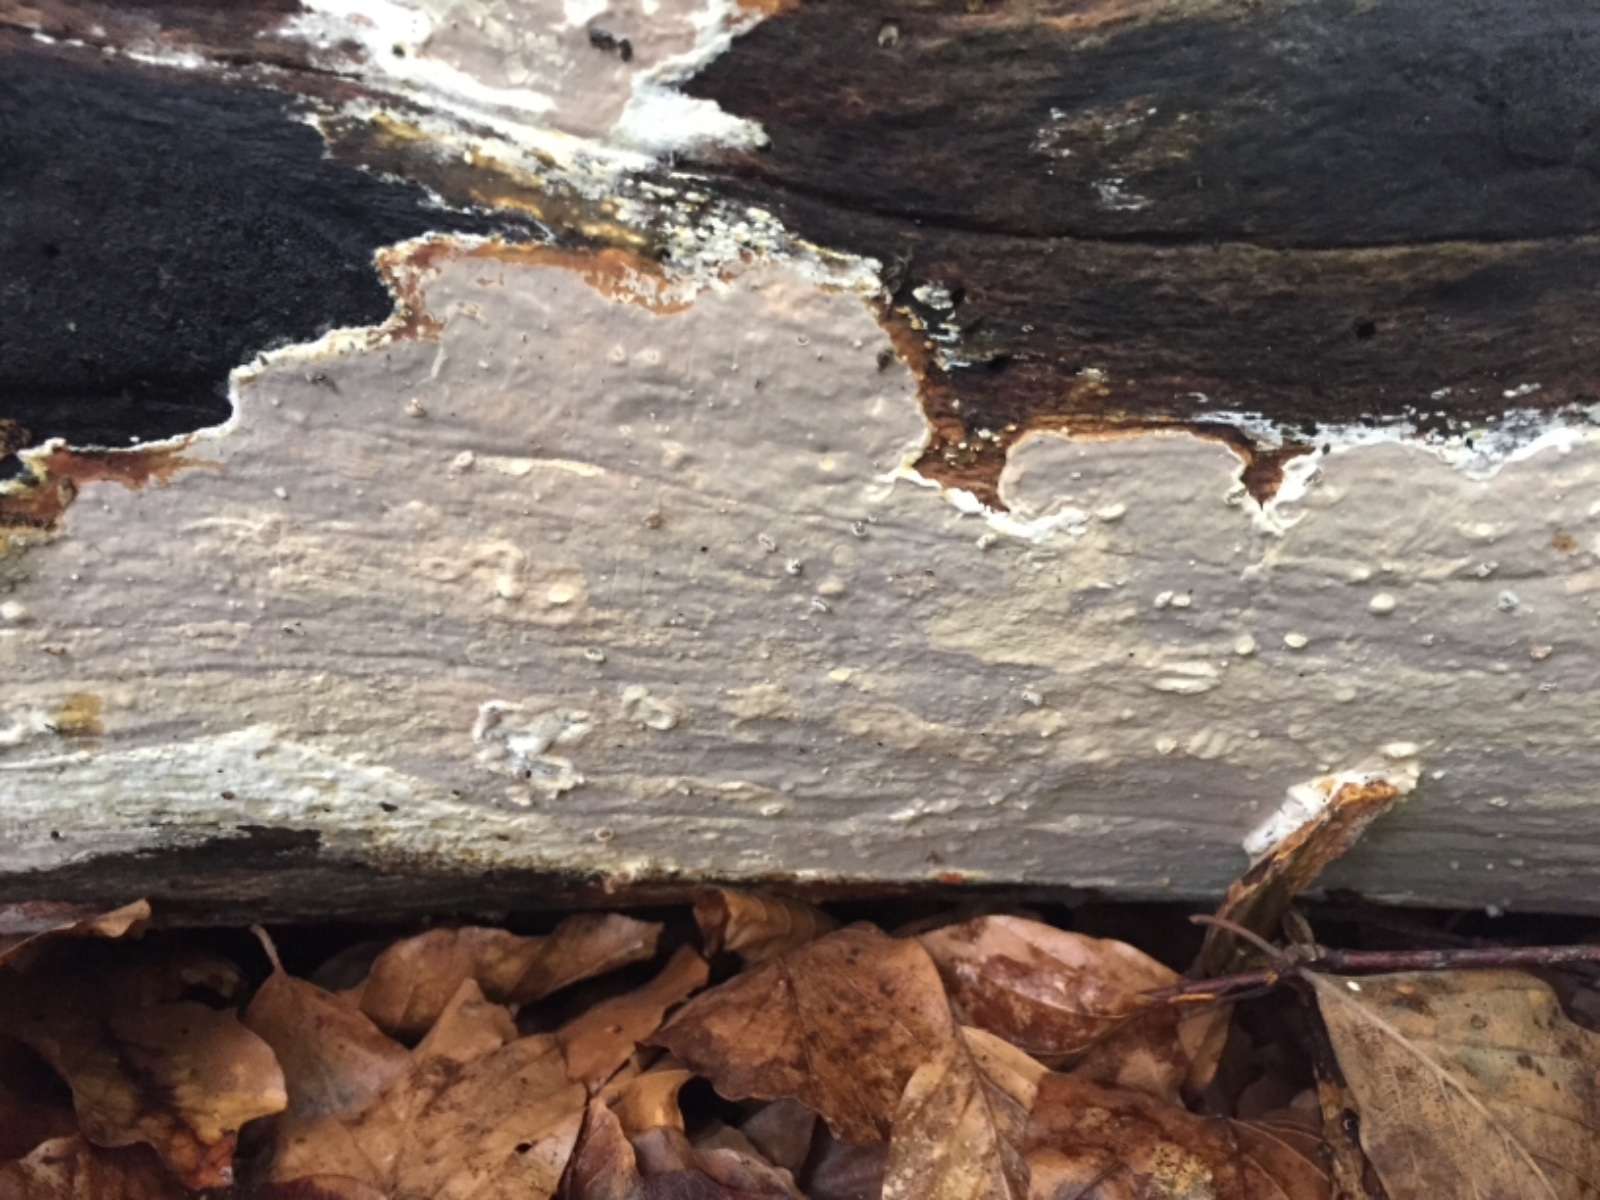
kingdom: Fungi
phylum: Basidiomycota
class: Agaricomycetes
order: Russulales
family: Peniophoraceae
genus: Scytinostroma
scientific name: Scytinostroma hemidichophyticum
